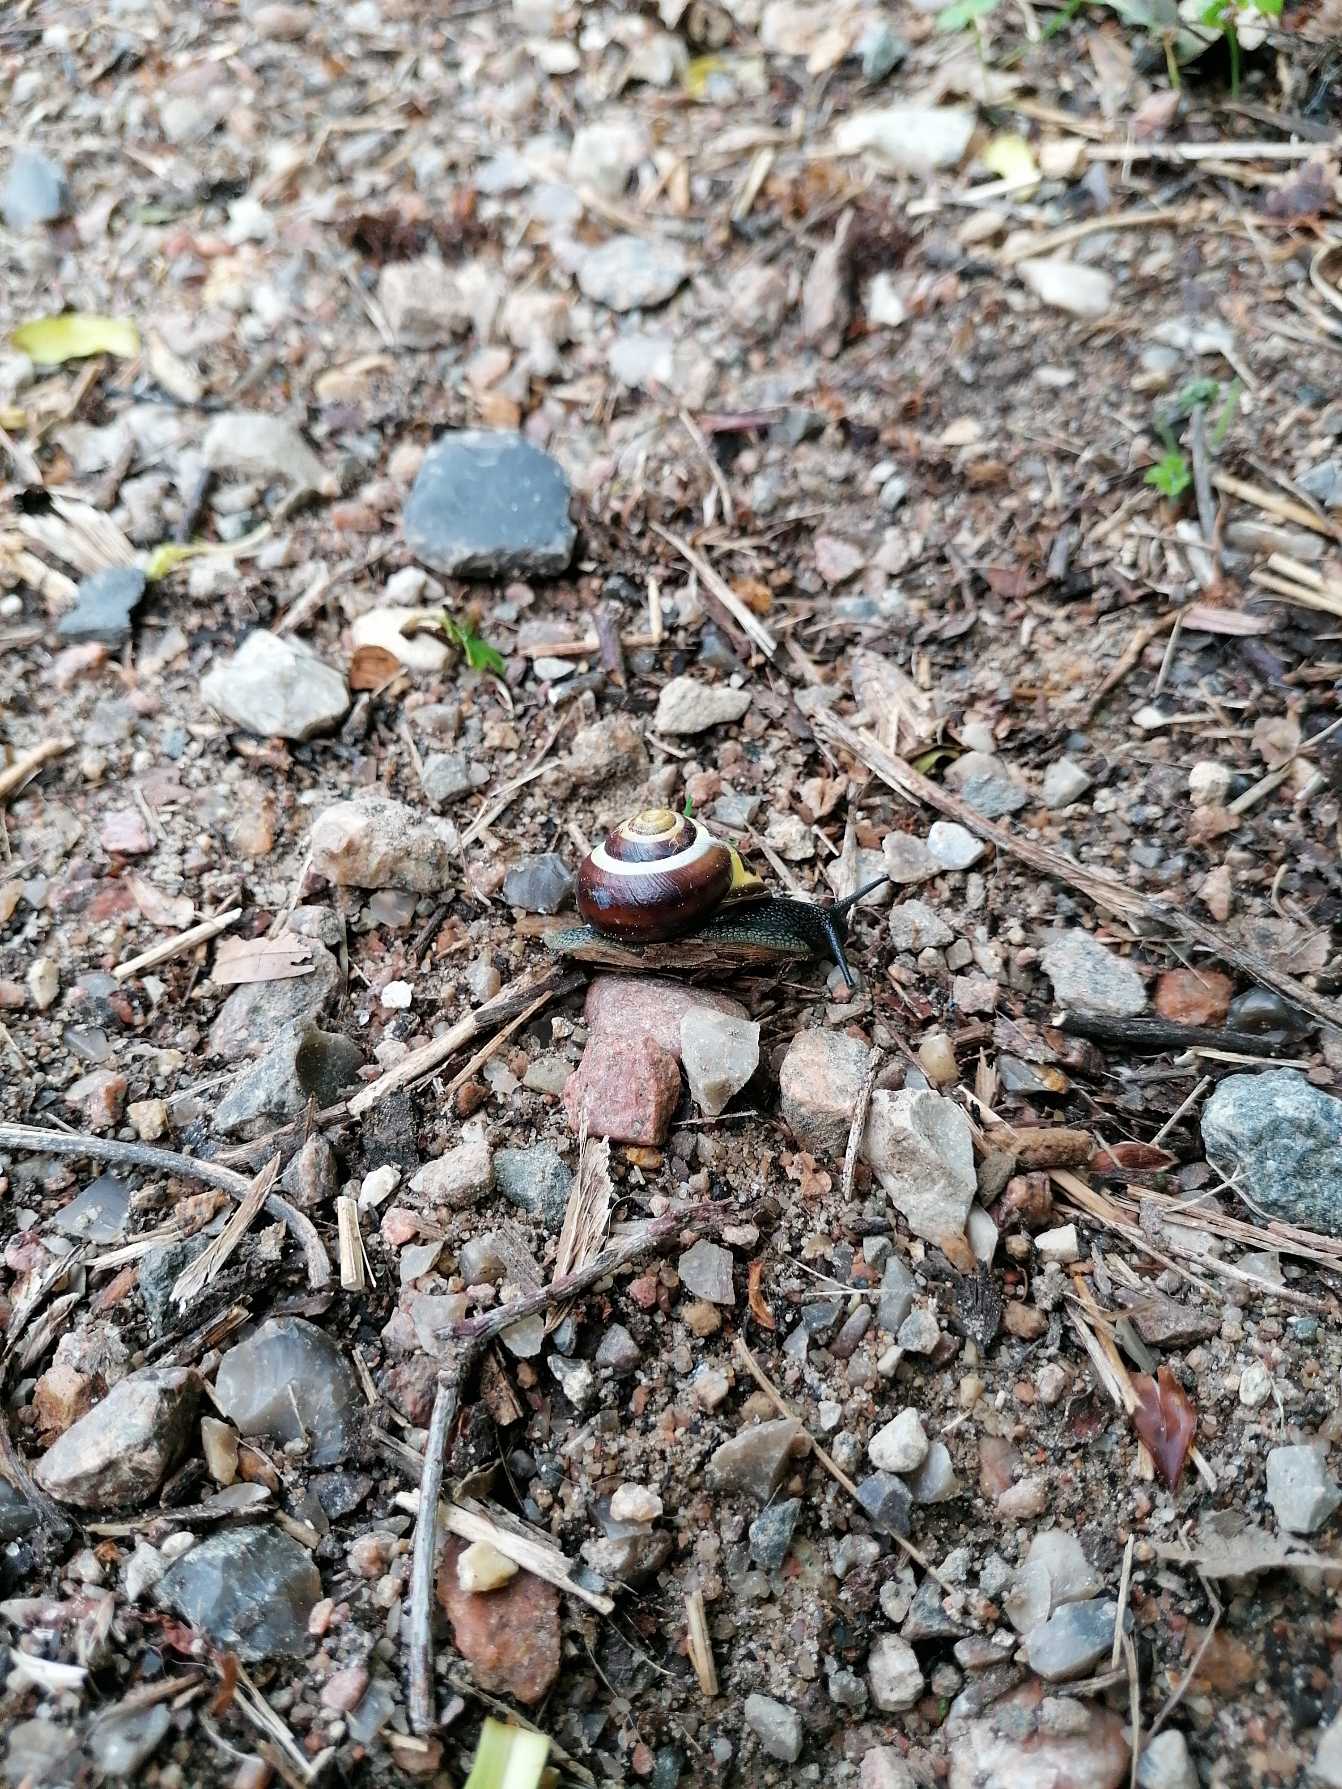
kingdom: Animalia
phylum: Mollusca
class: Gastropoda
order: Stylommatophora
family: Helicidae
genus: Cepaea
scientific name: Cepaea nemoralis
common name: Lundsnegl
